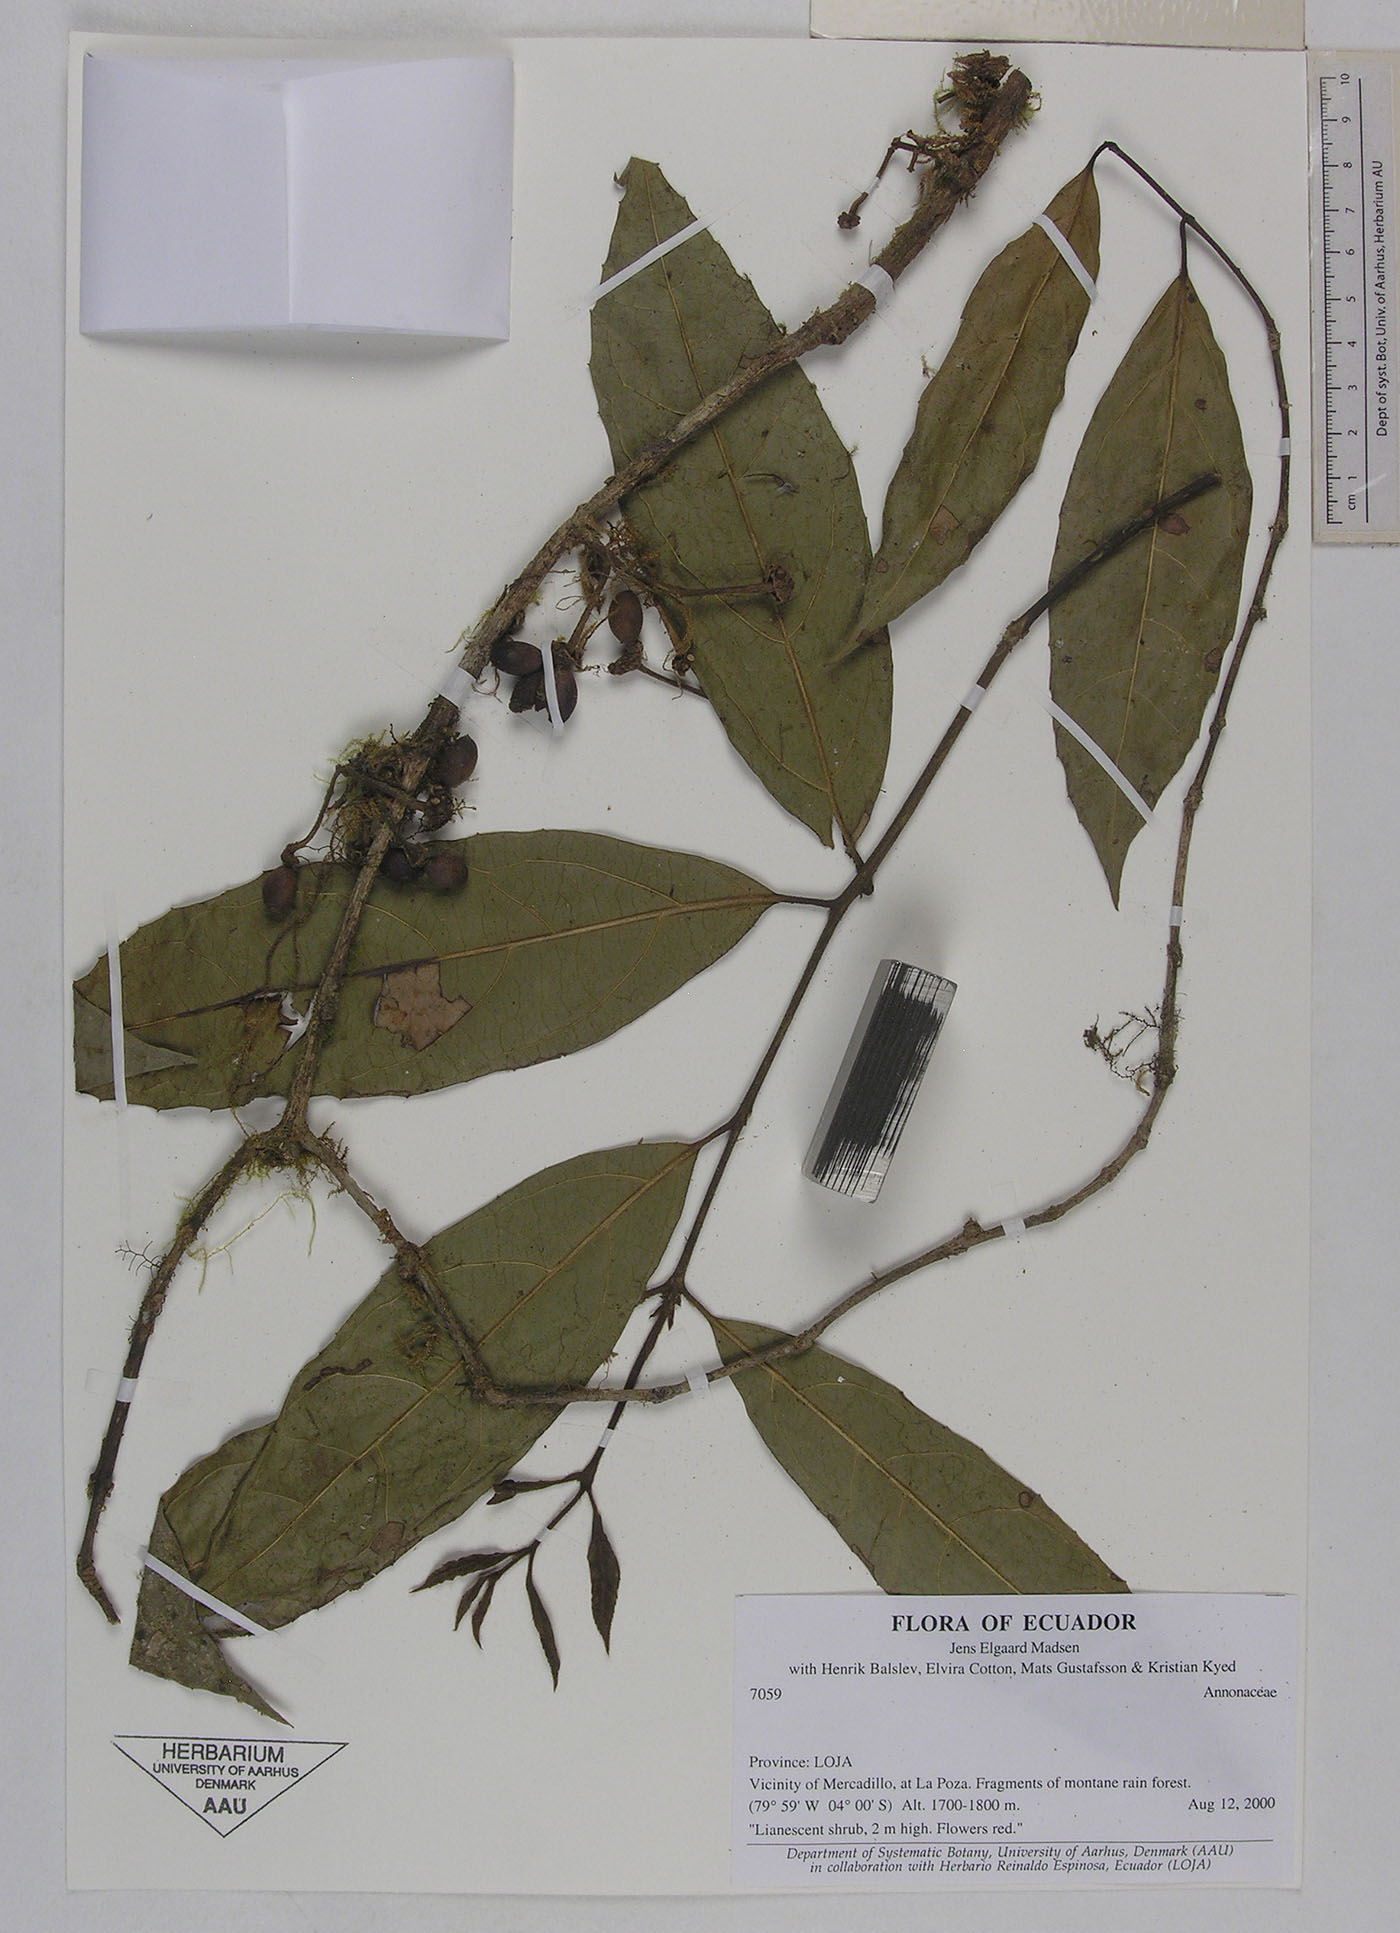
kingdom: Plantae
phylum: Tracheophyta
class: Magnoliopsida
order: Laurales
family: Monimiaceae
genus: Mollinedia
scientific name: Mollinedia
